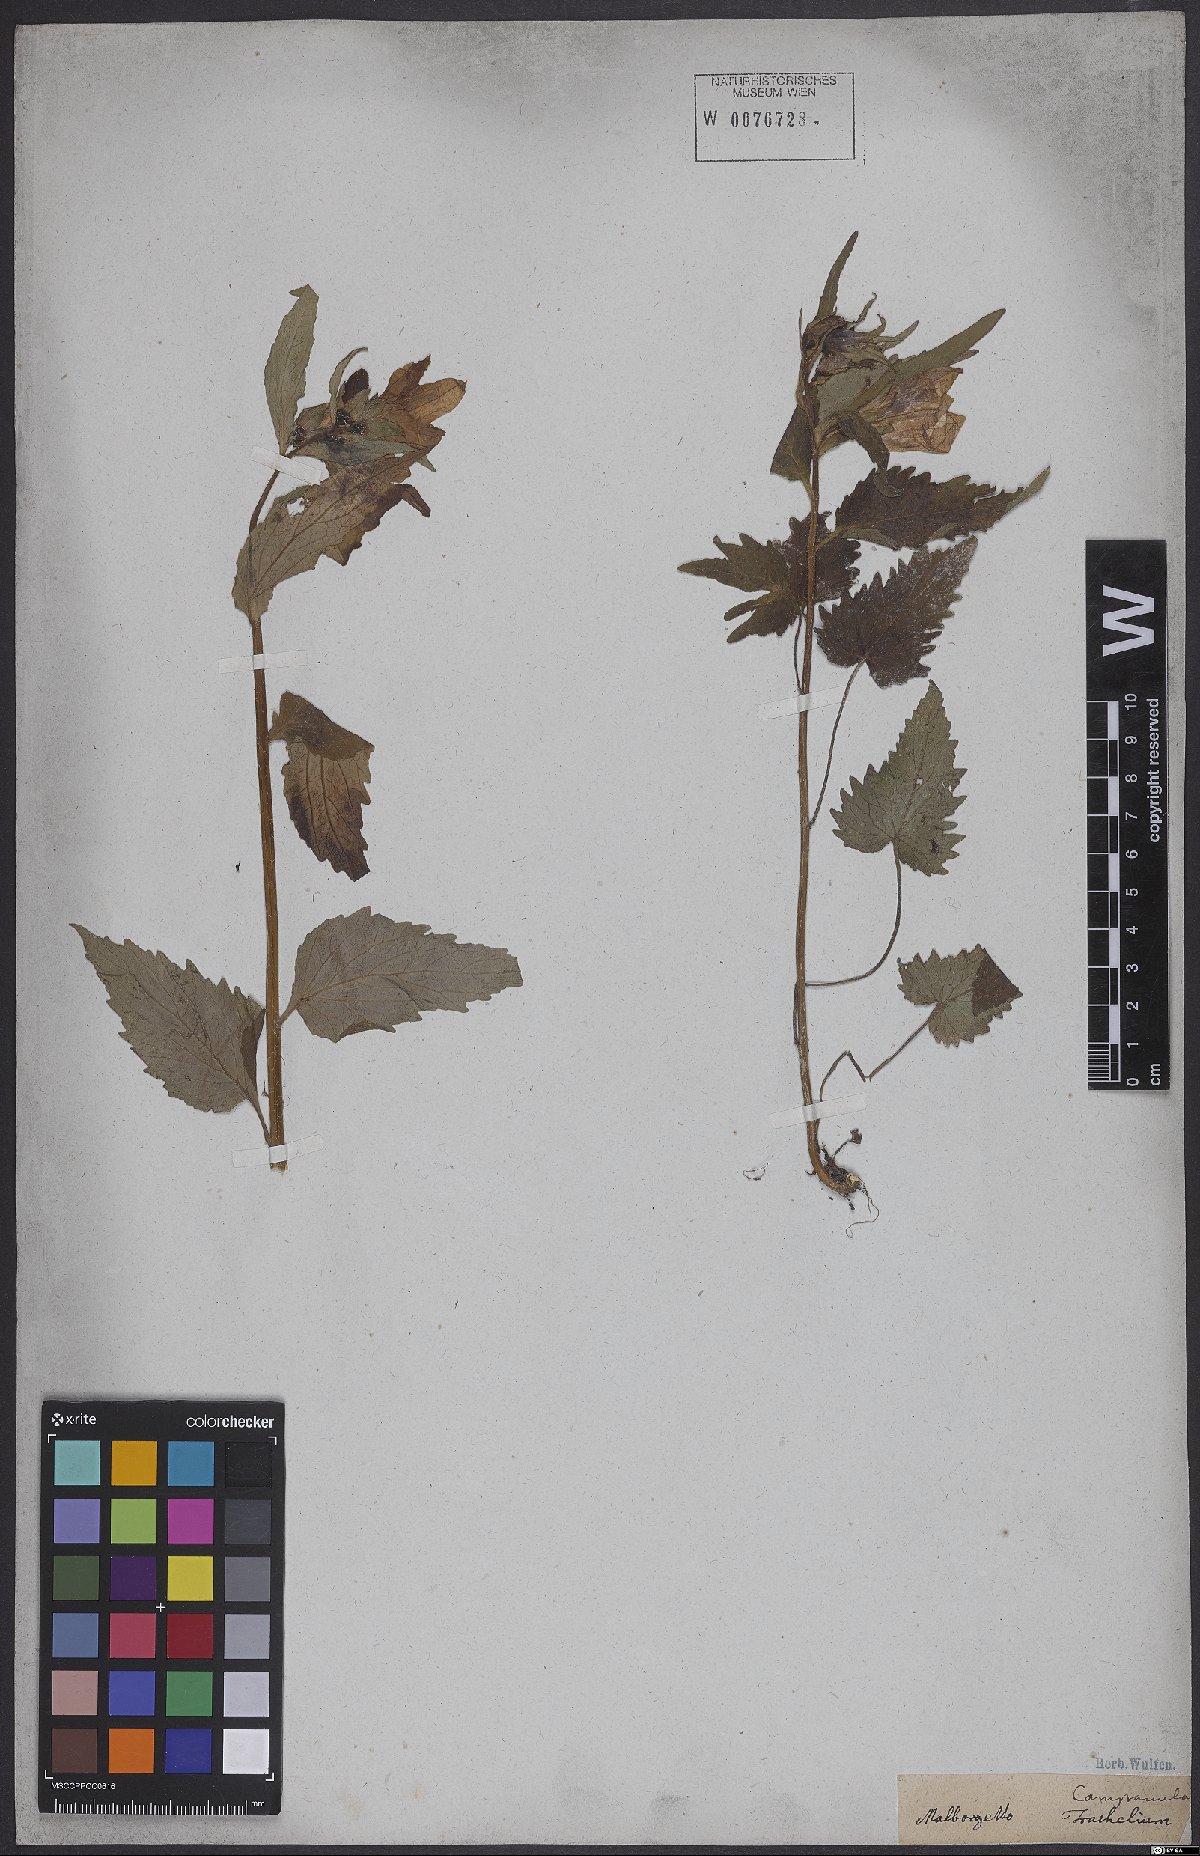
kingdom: Plantae
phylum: Tracheophyta
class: Magnoliopsida
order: Asterales
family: Campanulaceae
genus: Campanula
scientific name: Campanula trachelium
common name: Nettle-leaved bellflower
